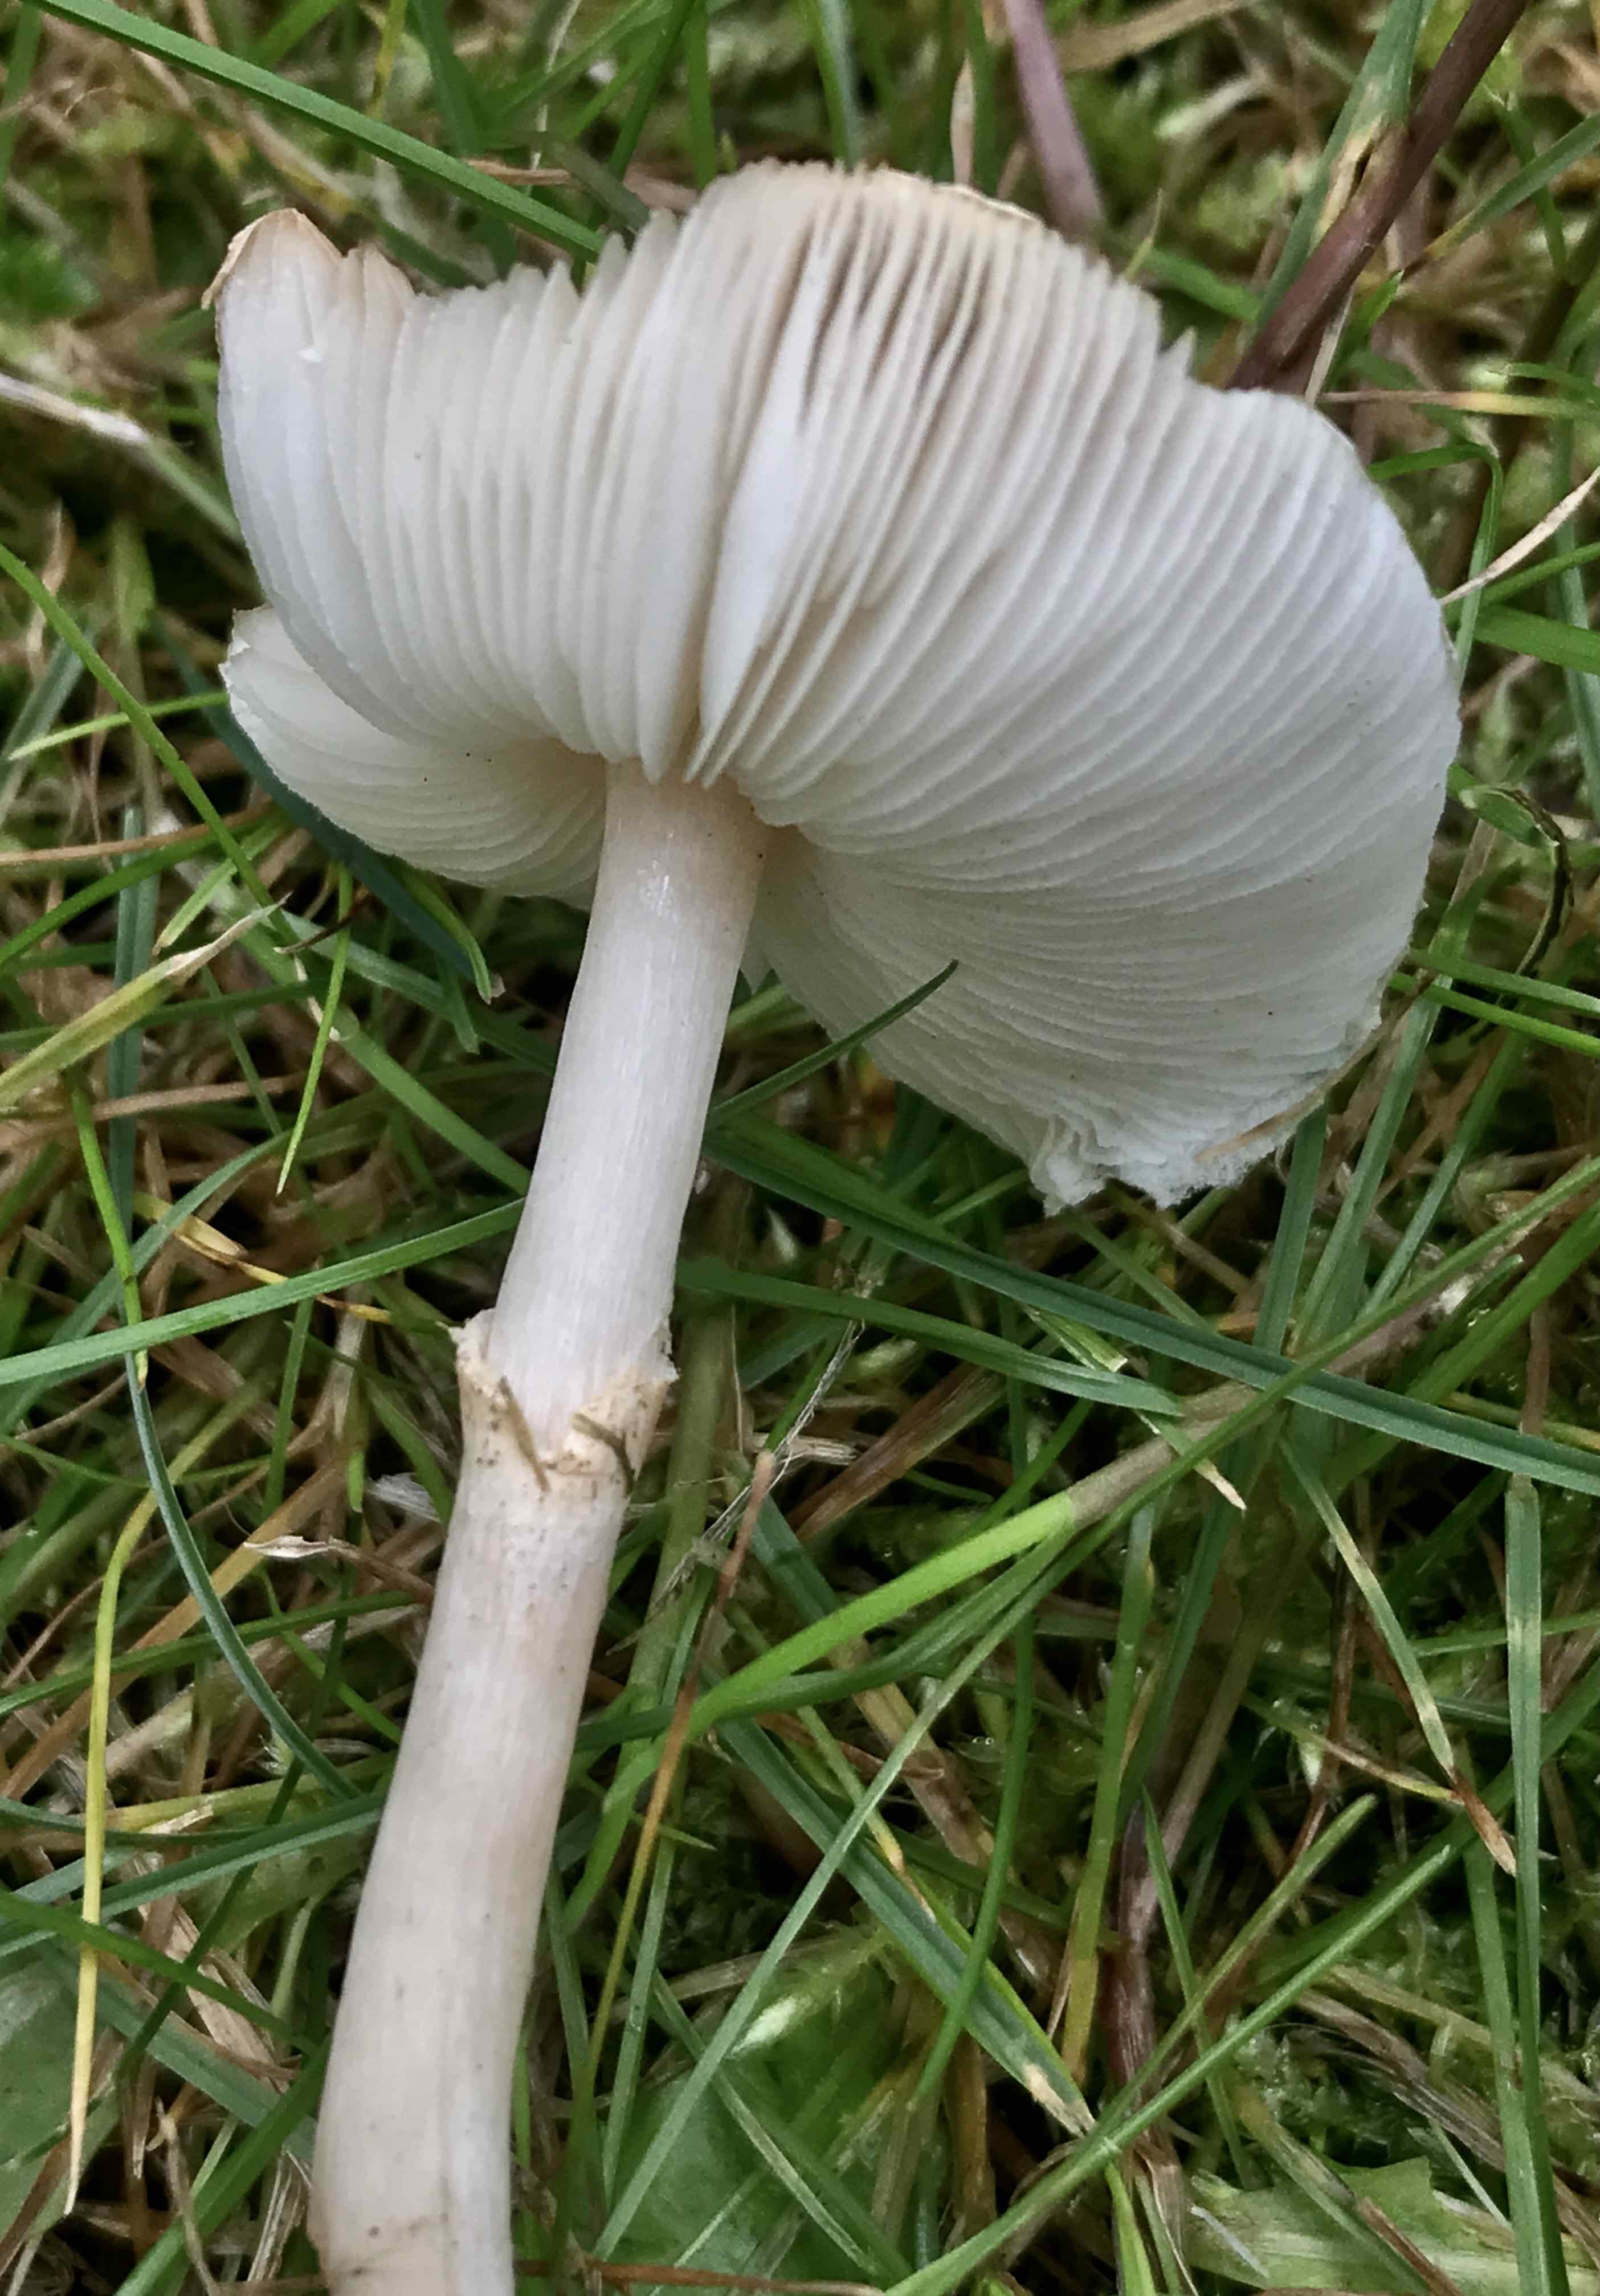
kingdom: Fungi
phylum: Basidiomycota
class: Agaricomycetes
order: Agaricales
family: Agaricaceae
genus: Lepiota
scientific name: Lepiota cristata
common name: stinkende parasolhat
